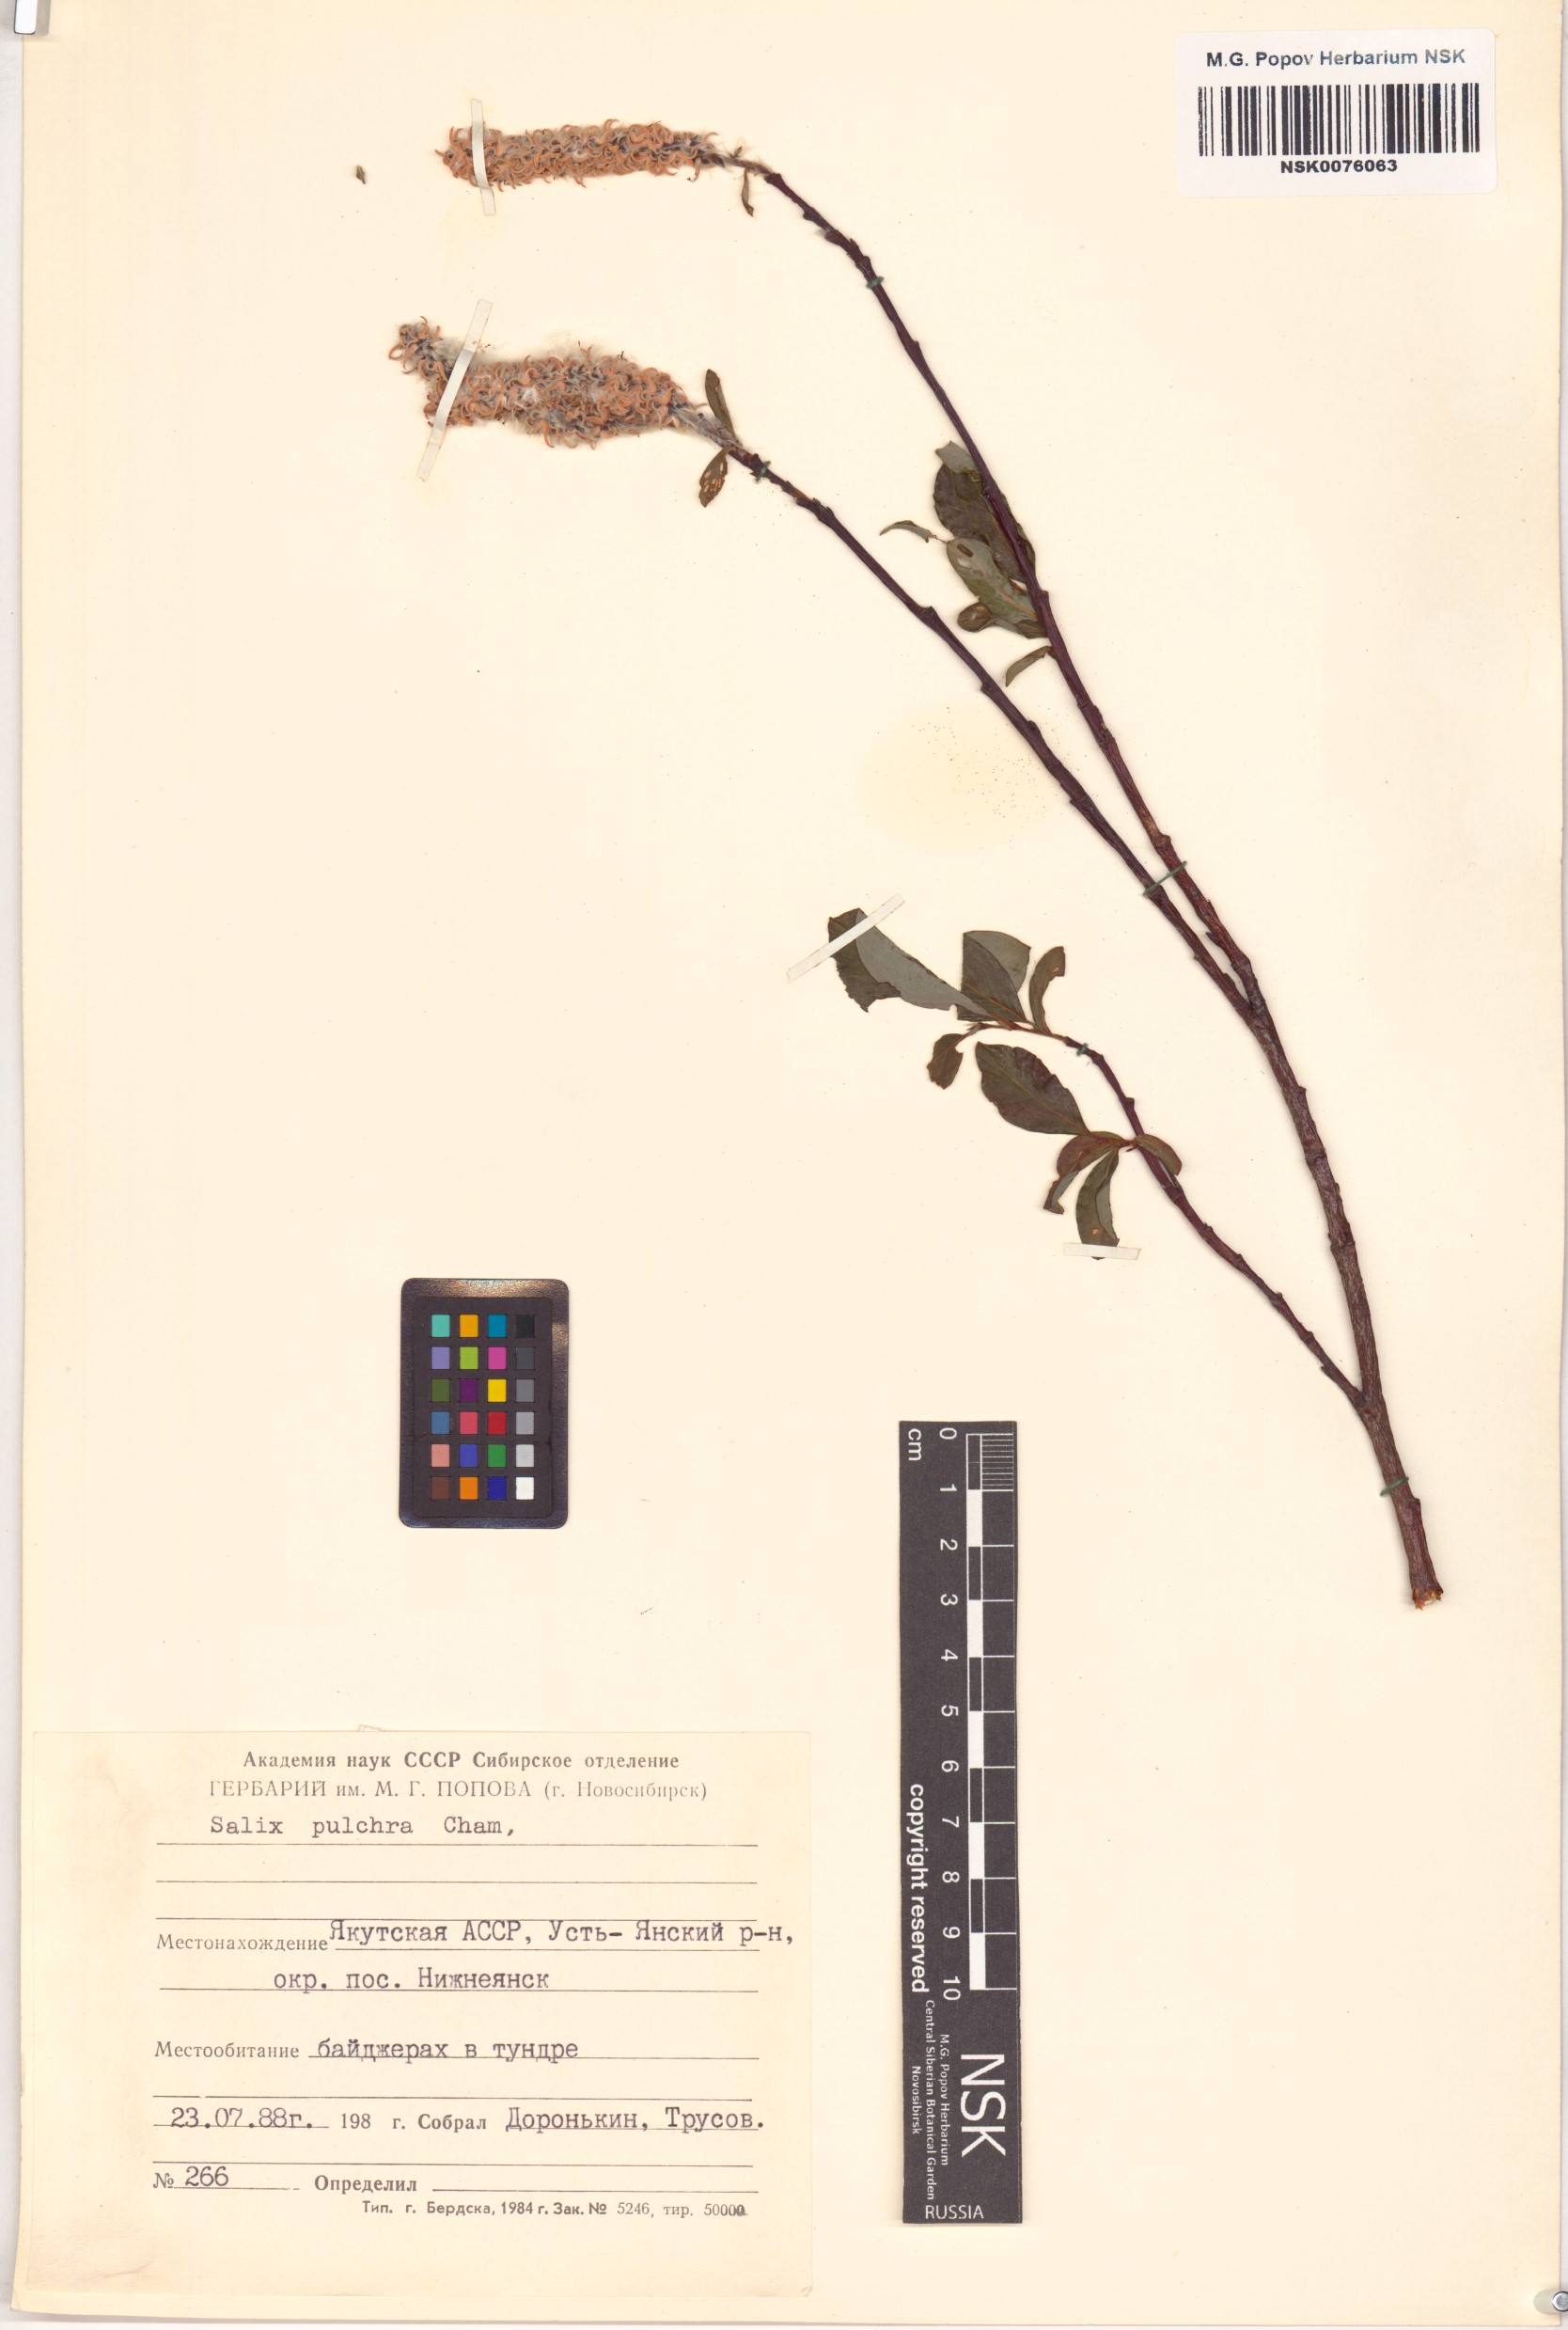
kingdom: Plantae
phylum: Tracheophyta
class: Magnoliopsida
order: Malpighiales
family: Salicaceae
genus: Salix
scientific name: Salix pulchra
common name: Diamond-leaved willow
